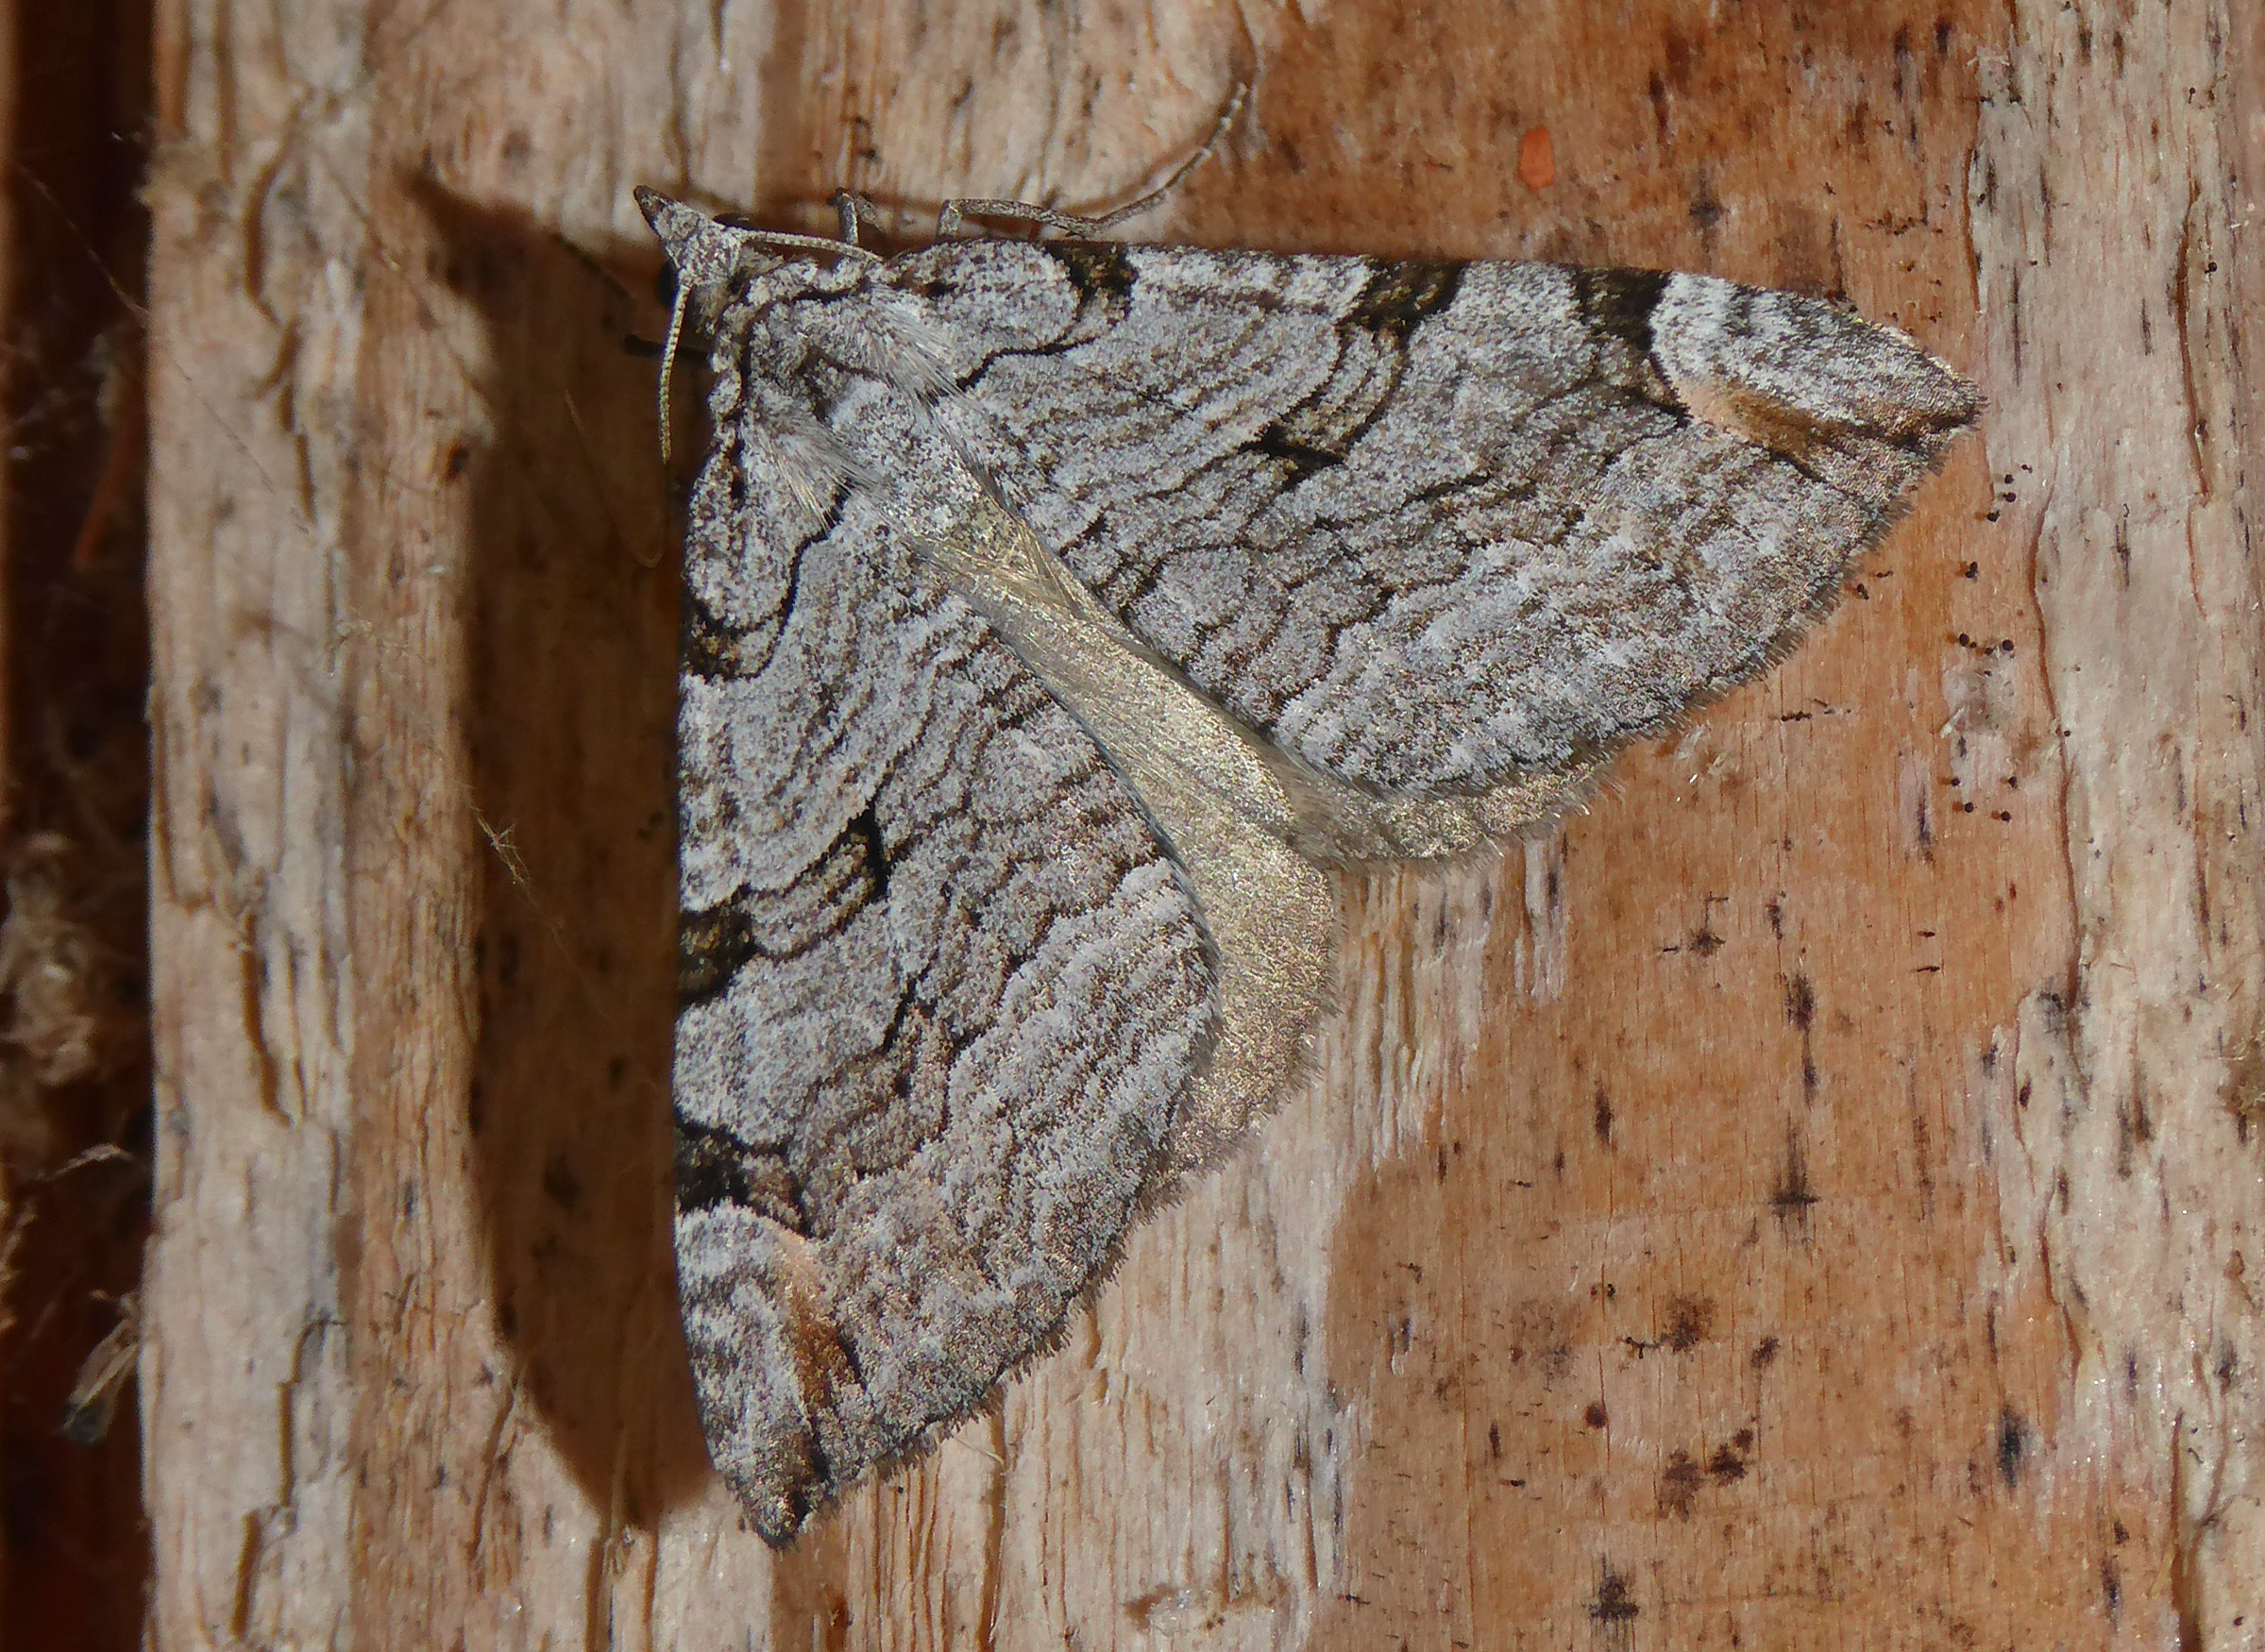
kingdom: Animalia
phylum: Arthropoda
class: Insecta
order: Lepidoptera
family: Geometridae
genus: Aplocera
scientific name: Aplocera plagiata
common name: Treble-bar
